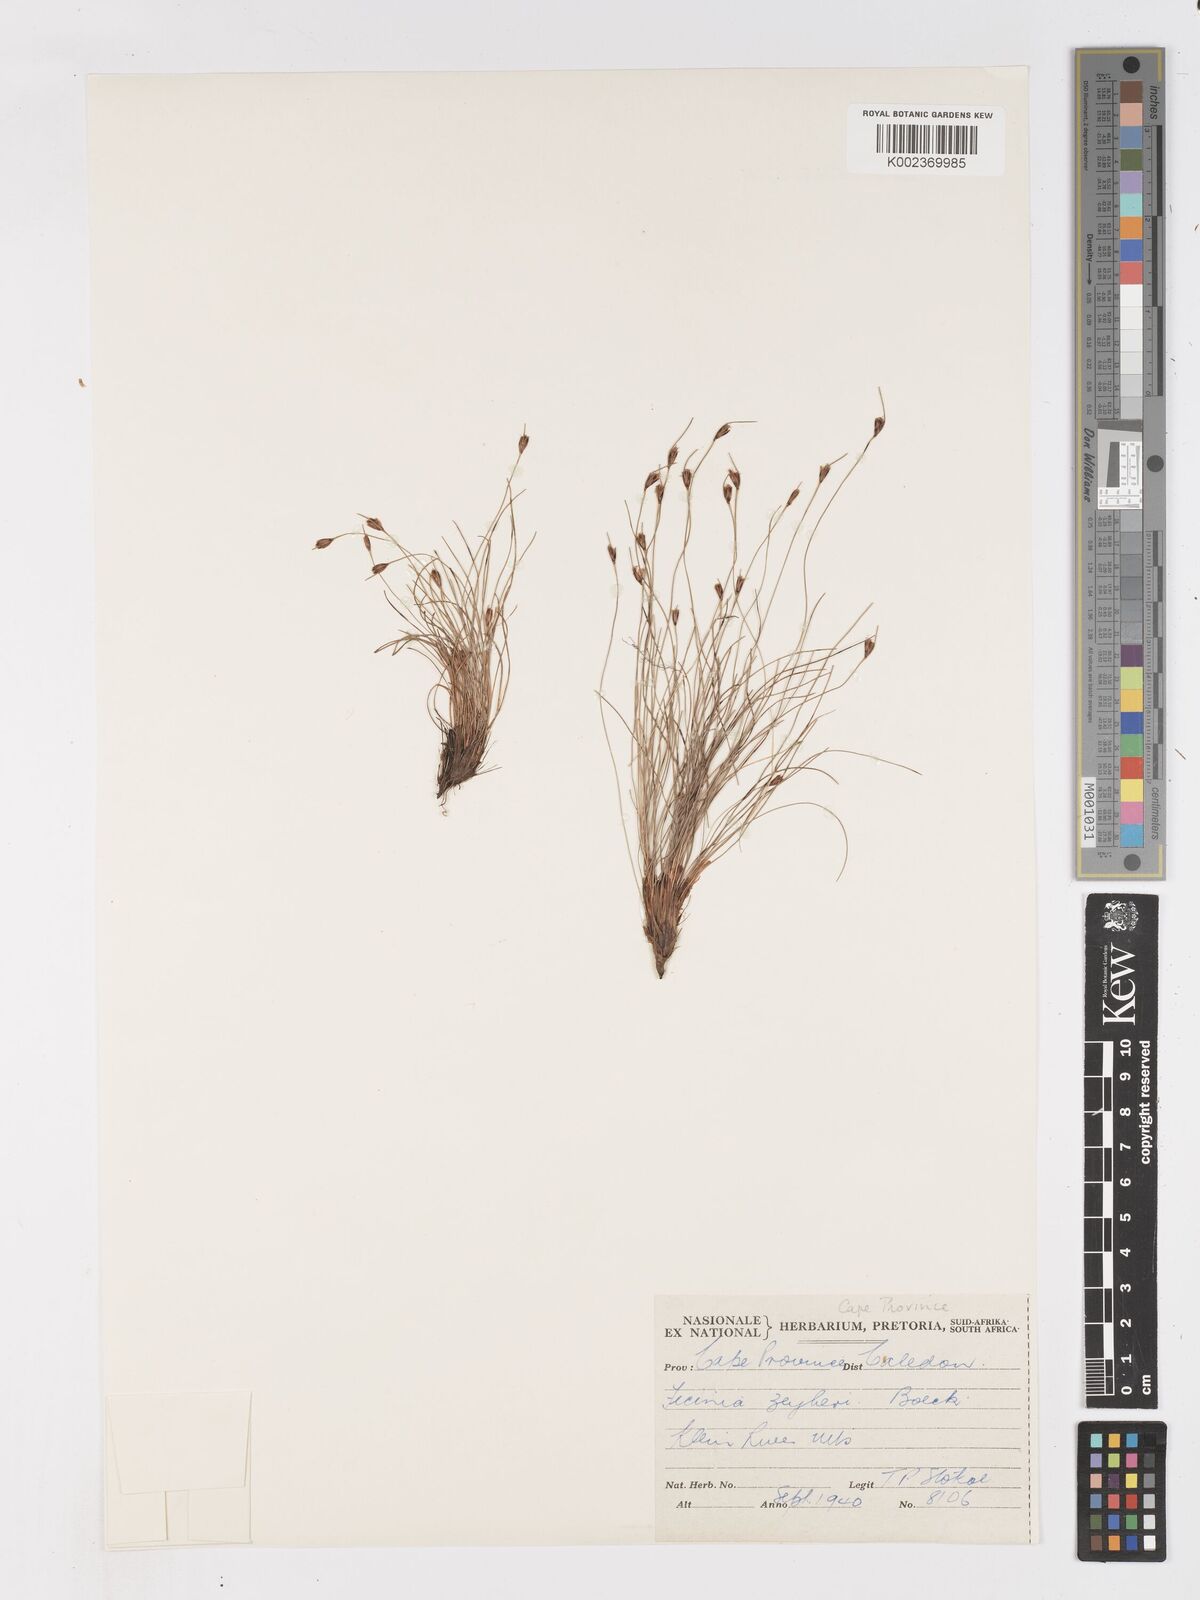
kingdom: Plantae
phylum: Tracheophyta
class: Liliopsida
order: Poales
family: Cyperaceae
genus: Ficinia
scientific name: Ficinia zeyheri
